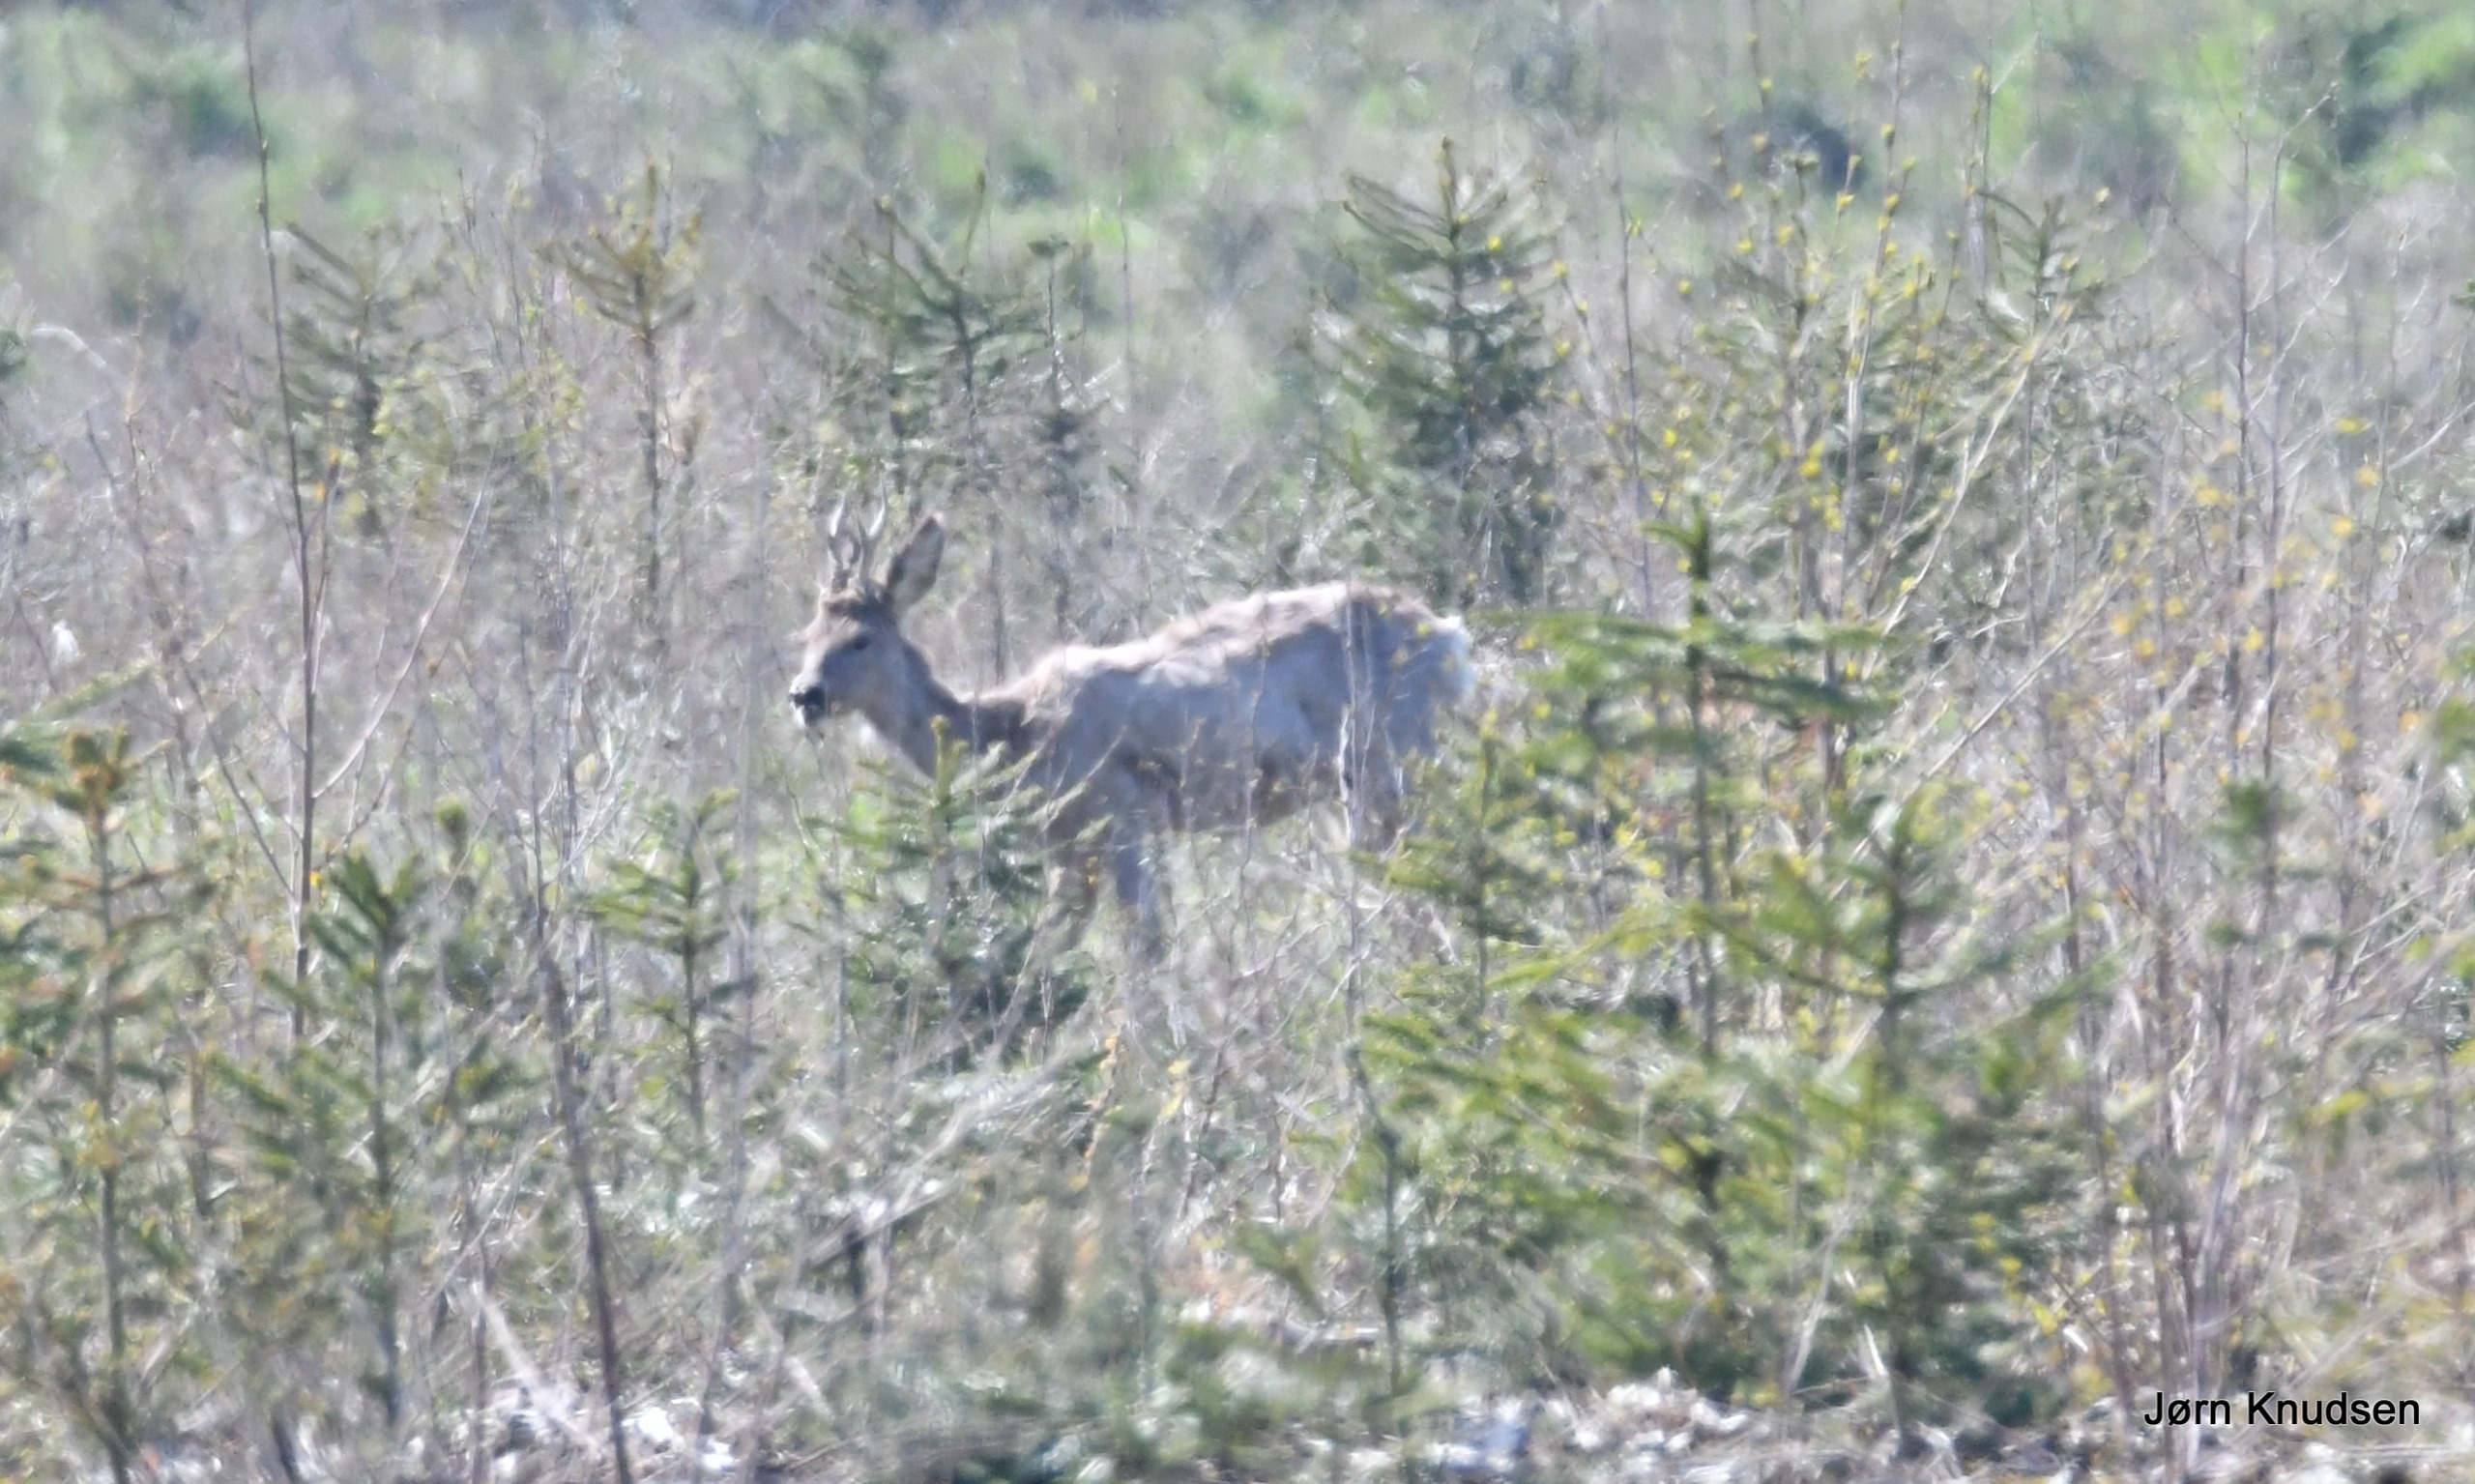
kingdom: Animalia
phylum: Chordata
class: Mammalia
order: Artiodactyla
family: Cervidae
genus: Capreolus
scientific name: Capreolus capreolus
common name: Rådyr
